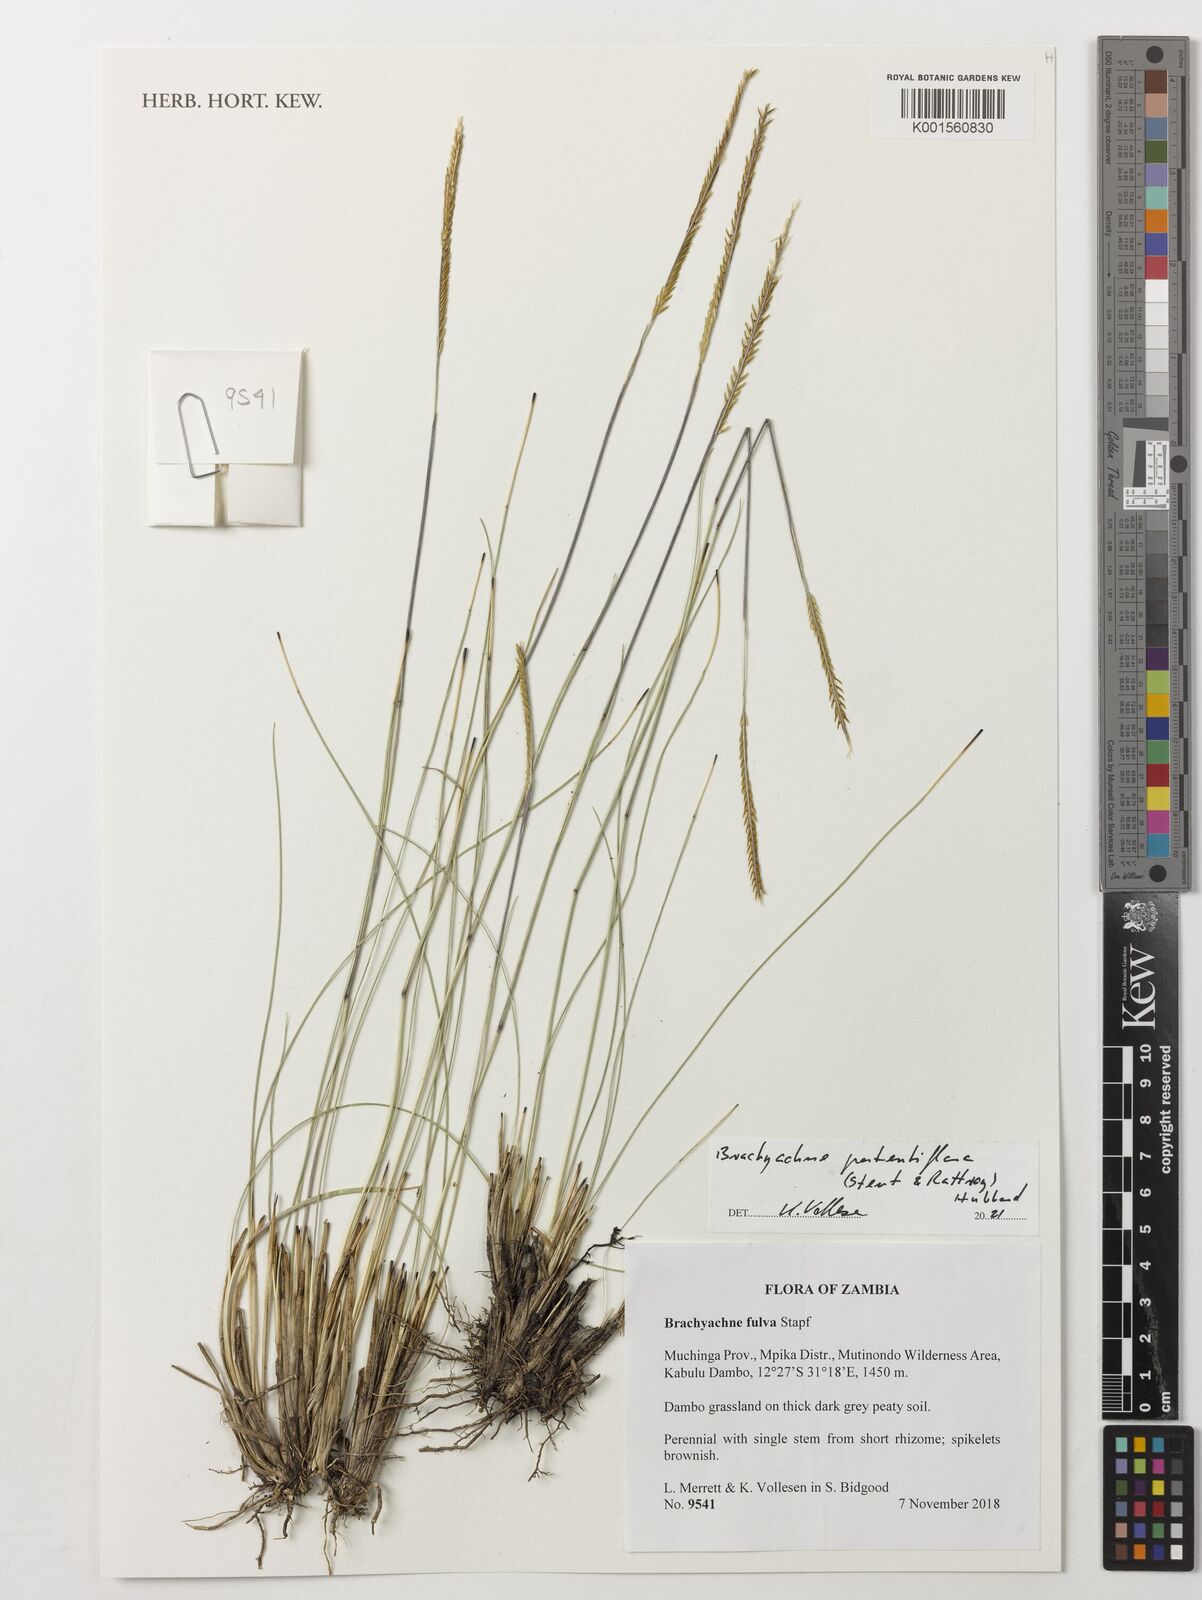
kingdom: Plantae
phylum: Tracheophyta
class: Liliopsida
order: Poales
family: Poaceae
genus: Micrachne
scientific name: Micrachne fulva
